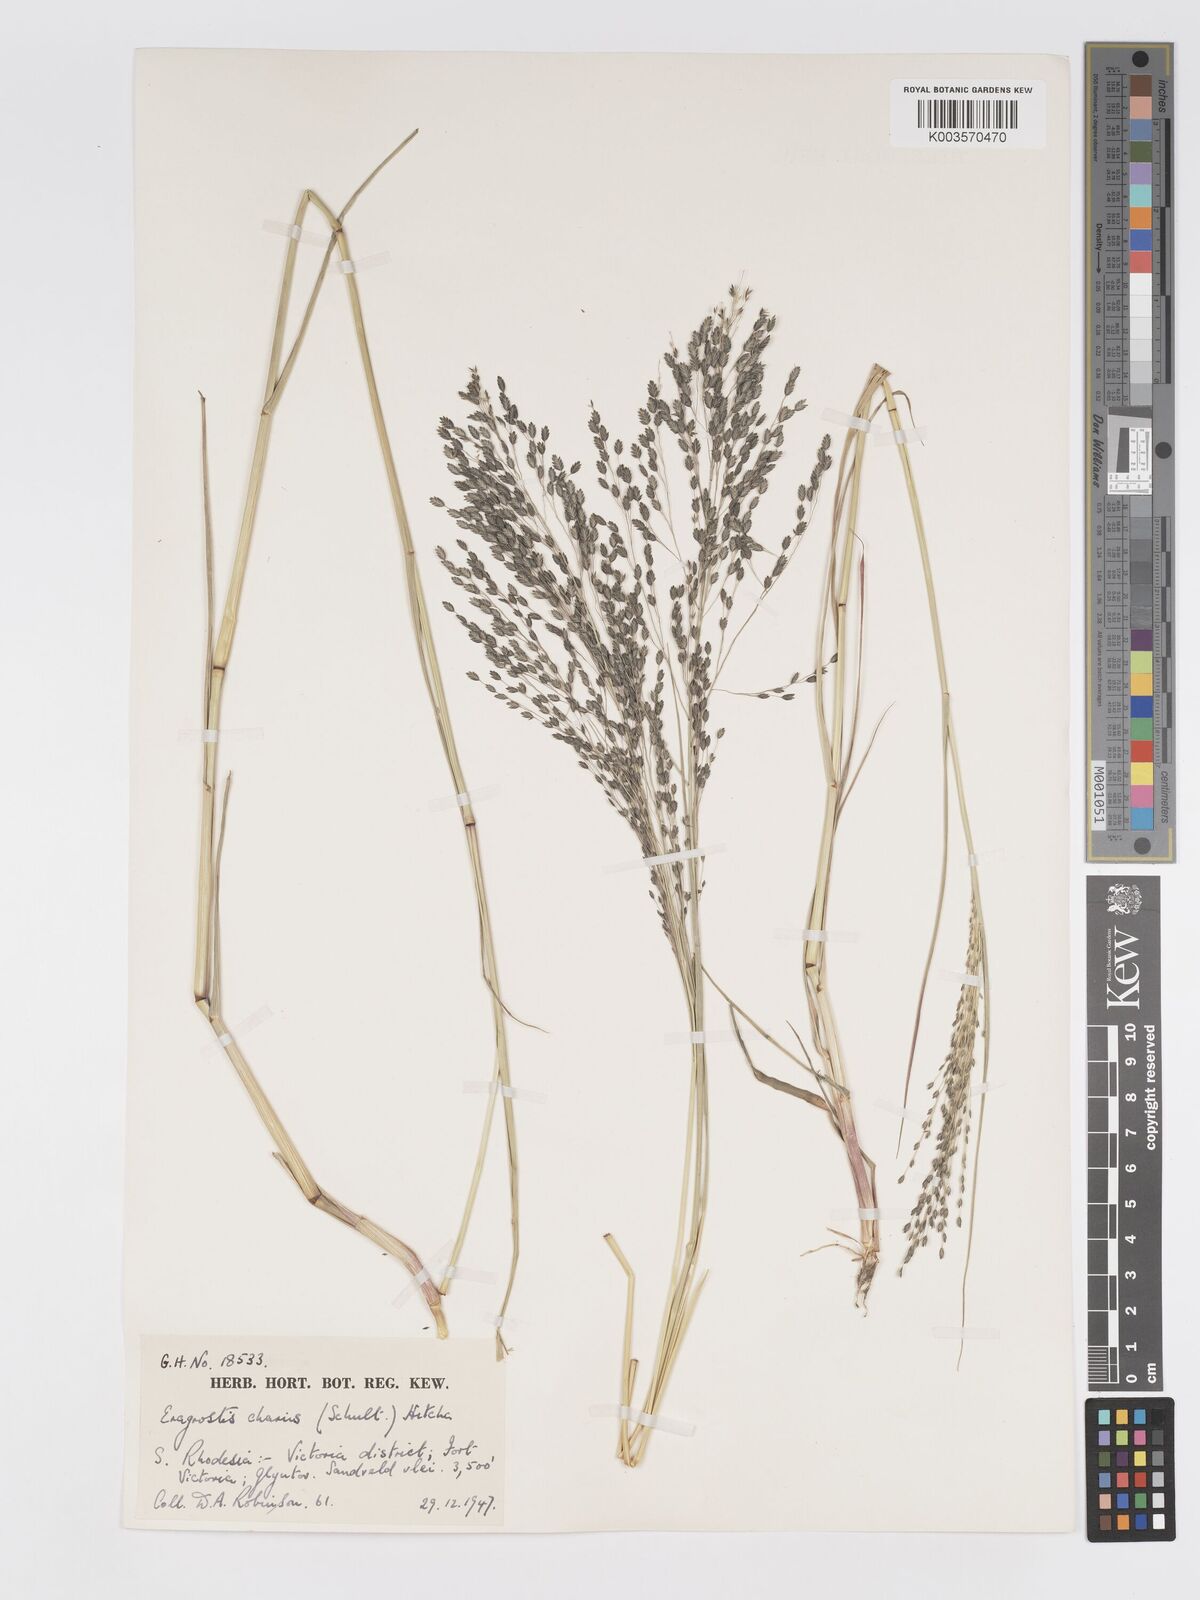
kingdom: Plantae
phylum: Tracheophyta
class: Liliopsida
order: Poales
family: Poaceae
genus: Eragrostis
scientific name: Eragrostis inamoena
